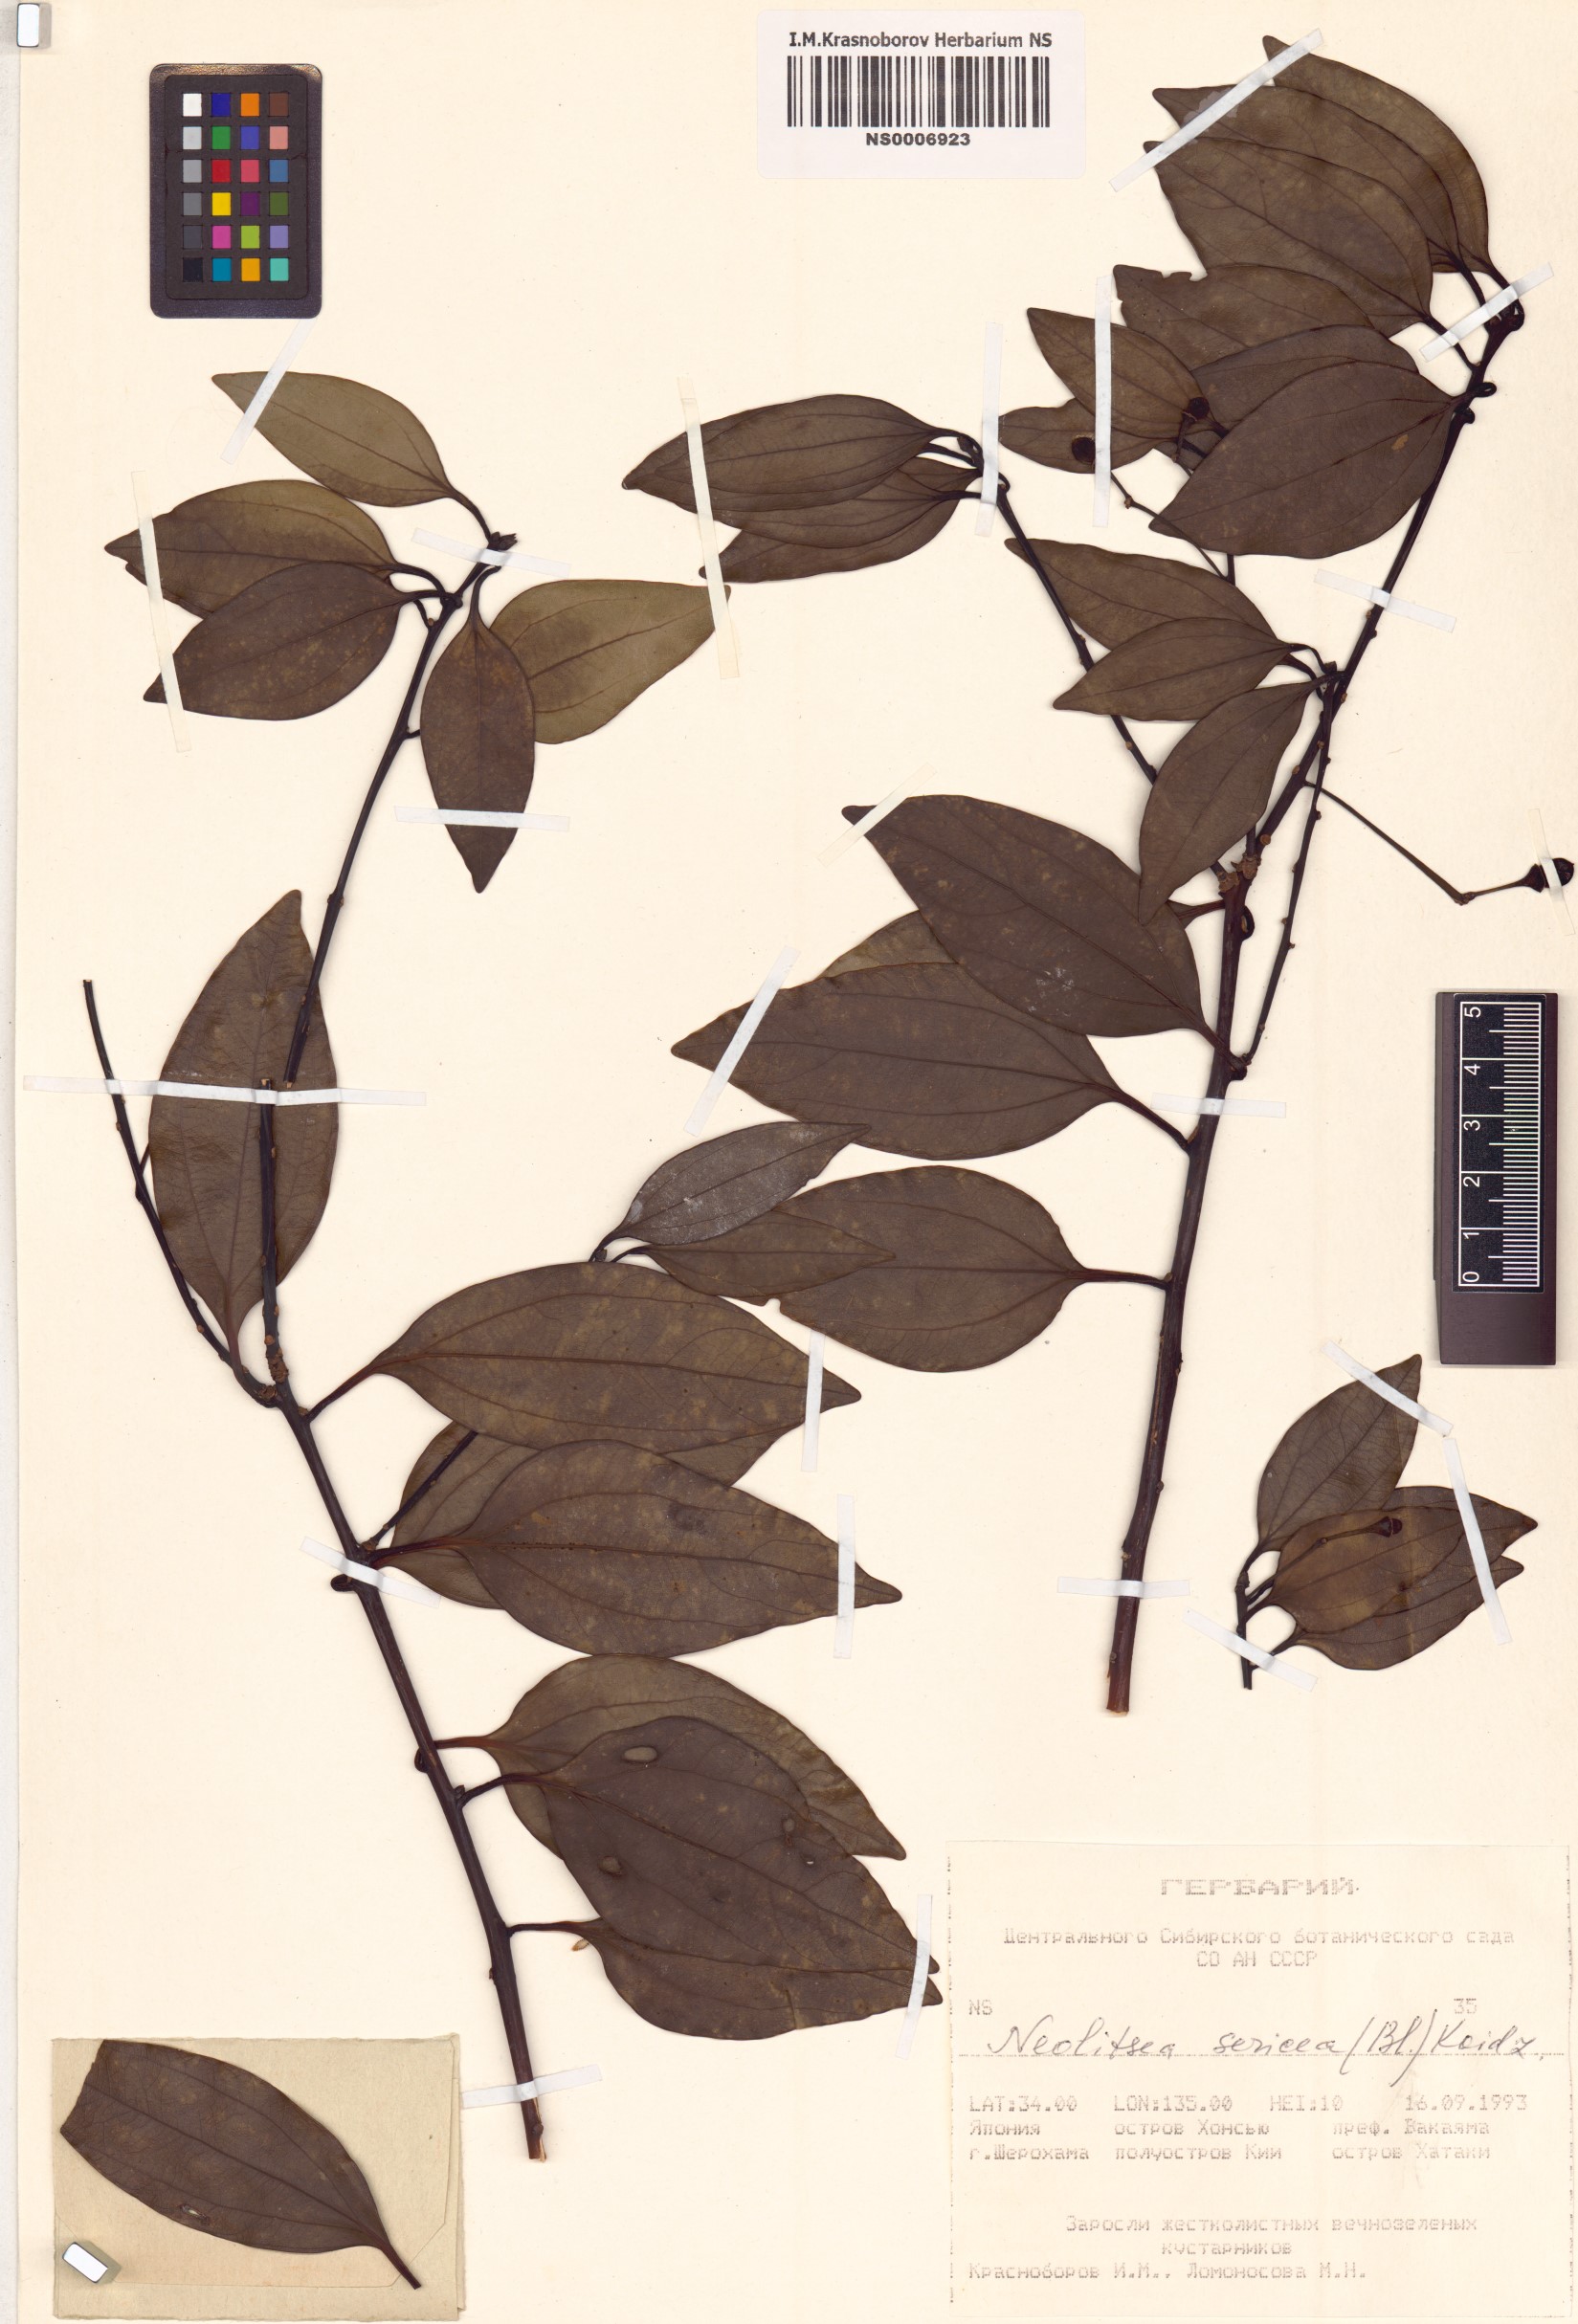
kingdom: Plantae
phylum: Tracheophyta
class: Magnoliopsida
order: Laurales
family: Lauraceae
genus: Neolitsea
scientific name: Neolitsea sericea
